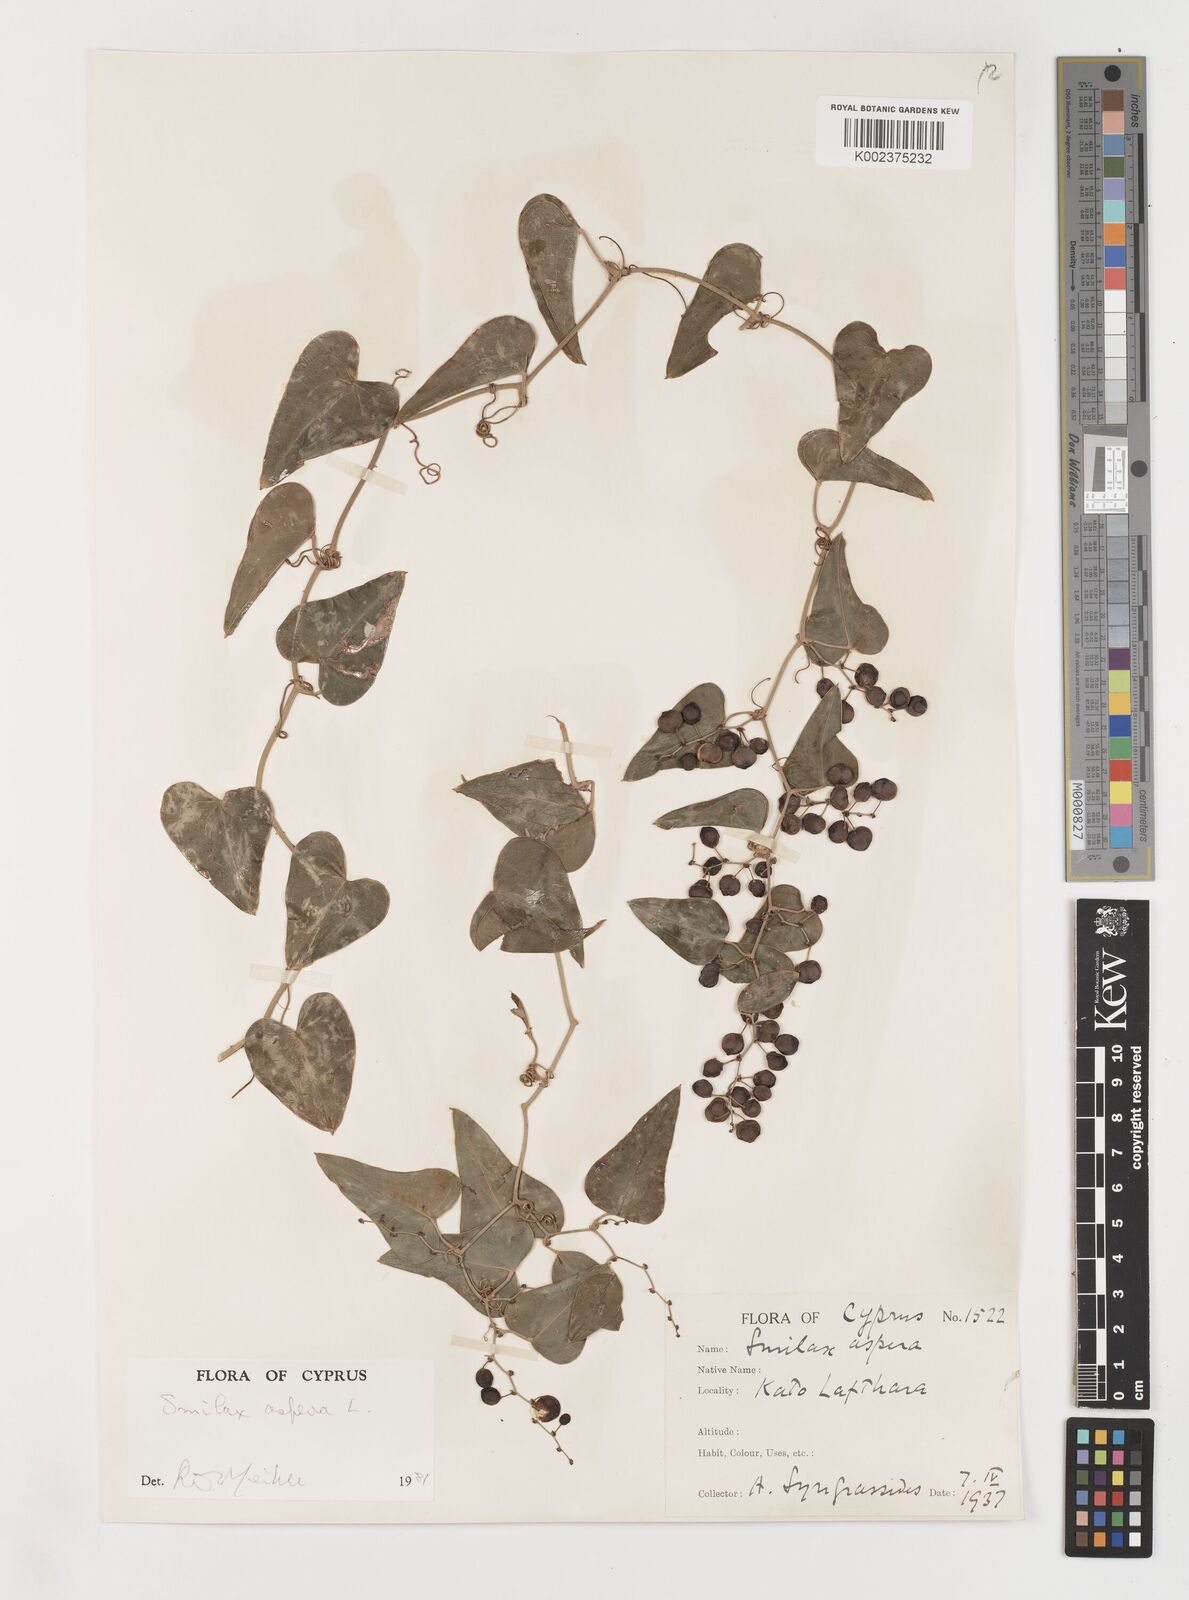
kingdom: Plantae
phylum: Tracheophyta
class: Liliopsida
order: Liliales
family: Smilacaceae
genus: Smilax
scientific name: Smilax aspera
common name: Common smilax
